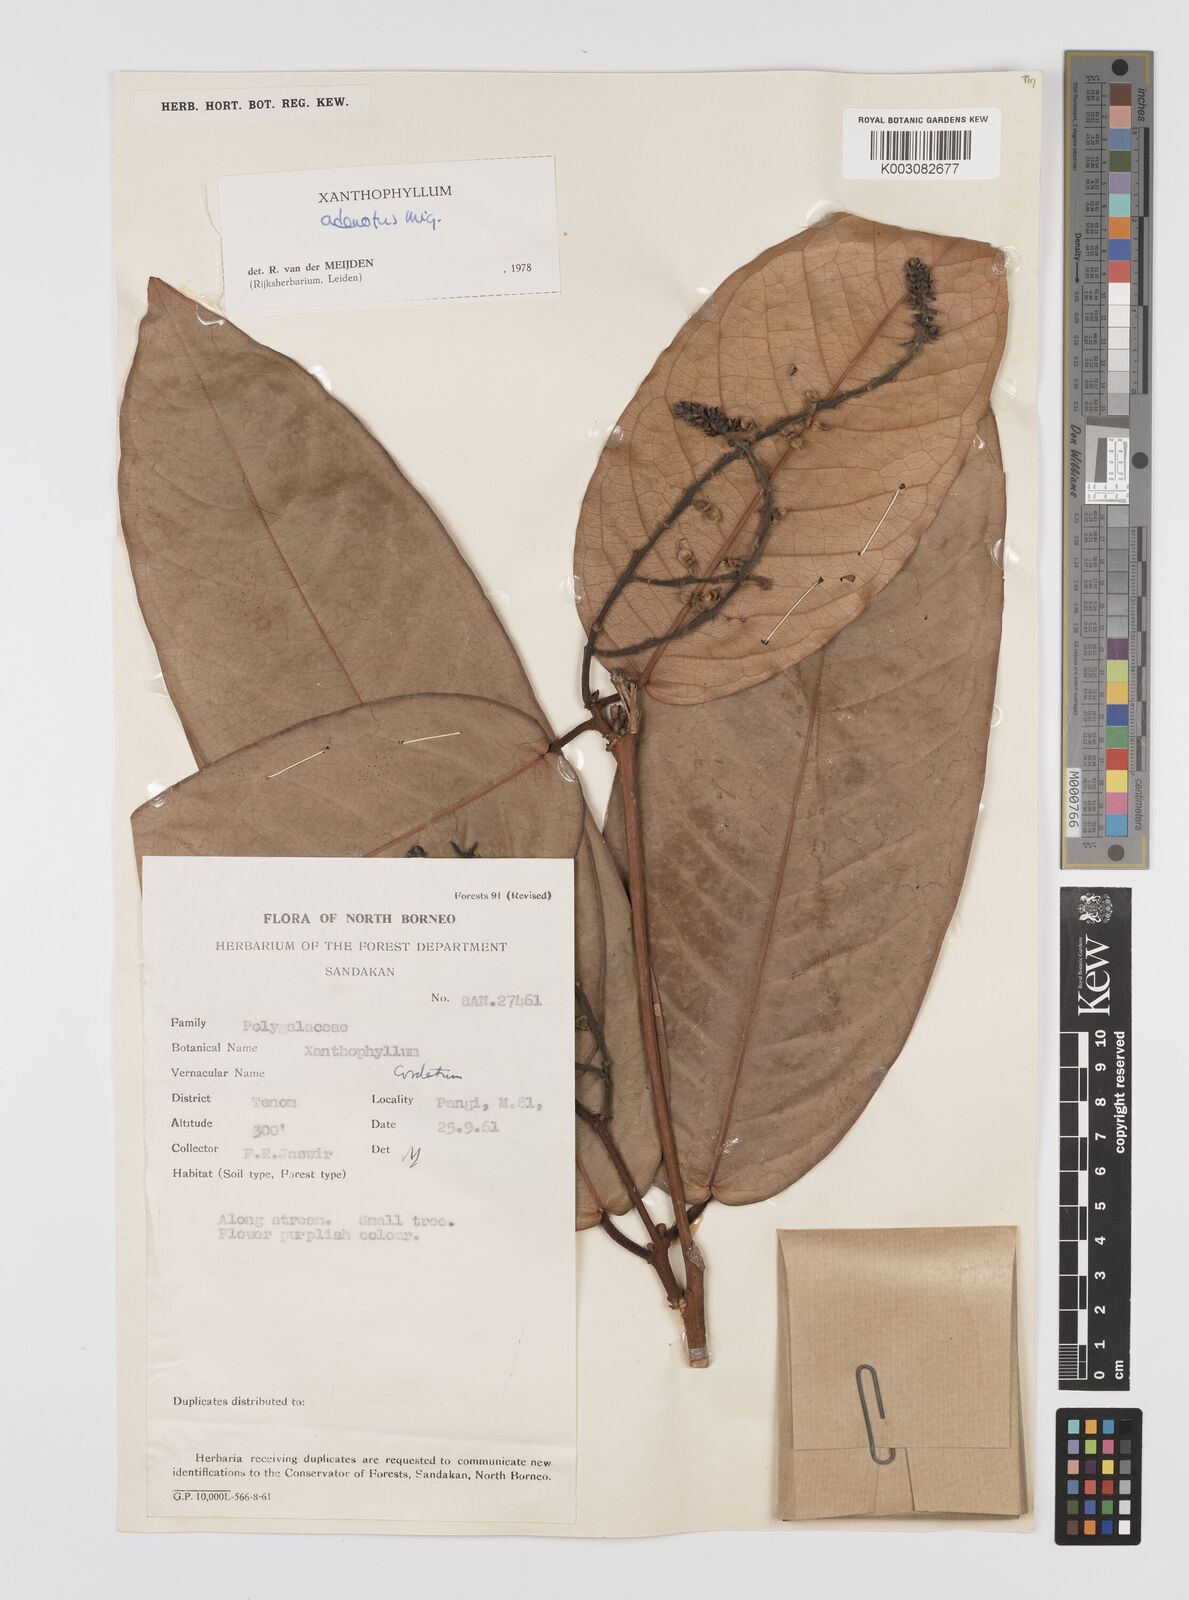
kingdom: Plantae
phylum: Tracheophyta
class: Magnoliopsida
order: Fabales
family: Polygalaceae
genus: Xanthophyllum
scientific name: Xanthophyllum adenotus
